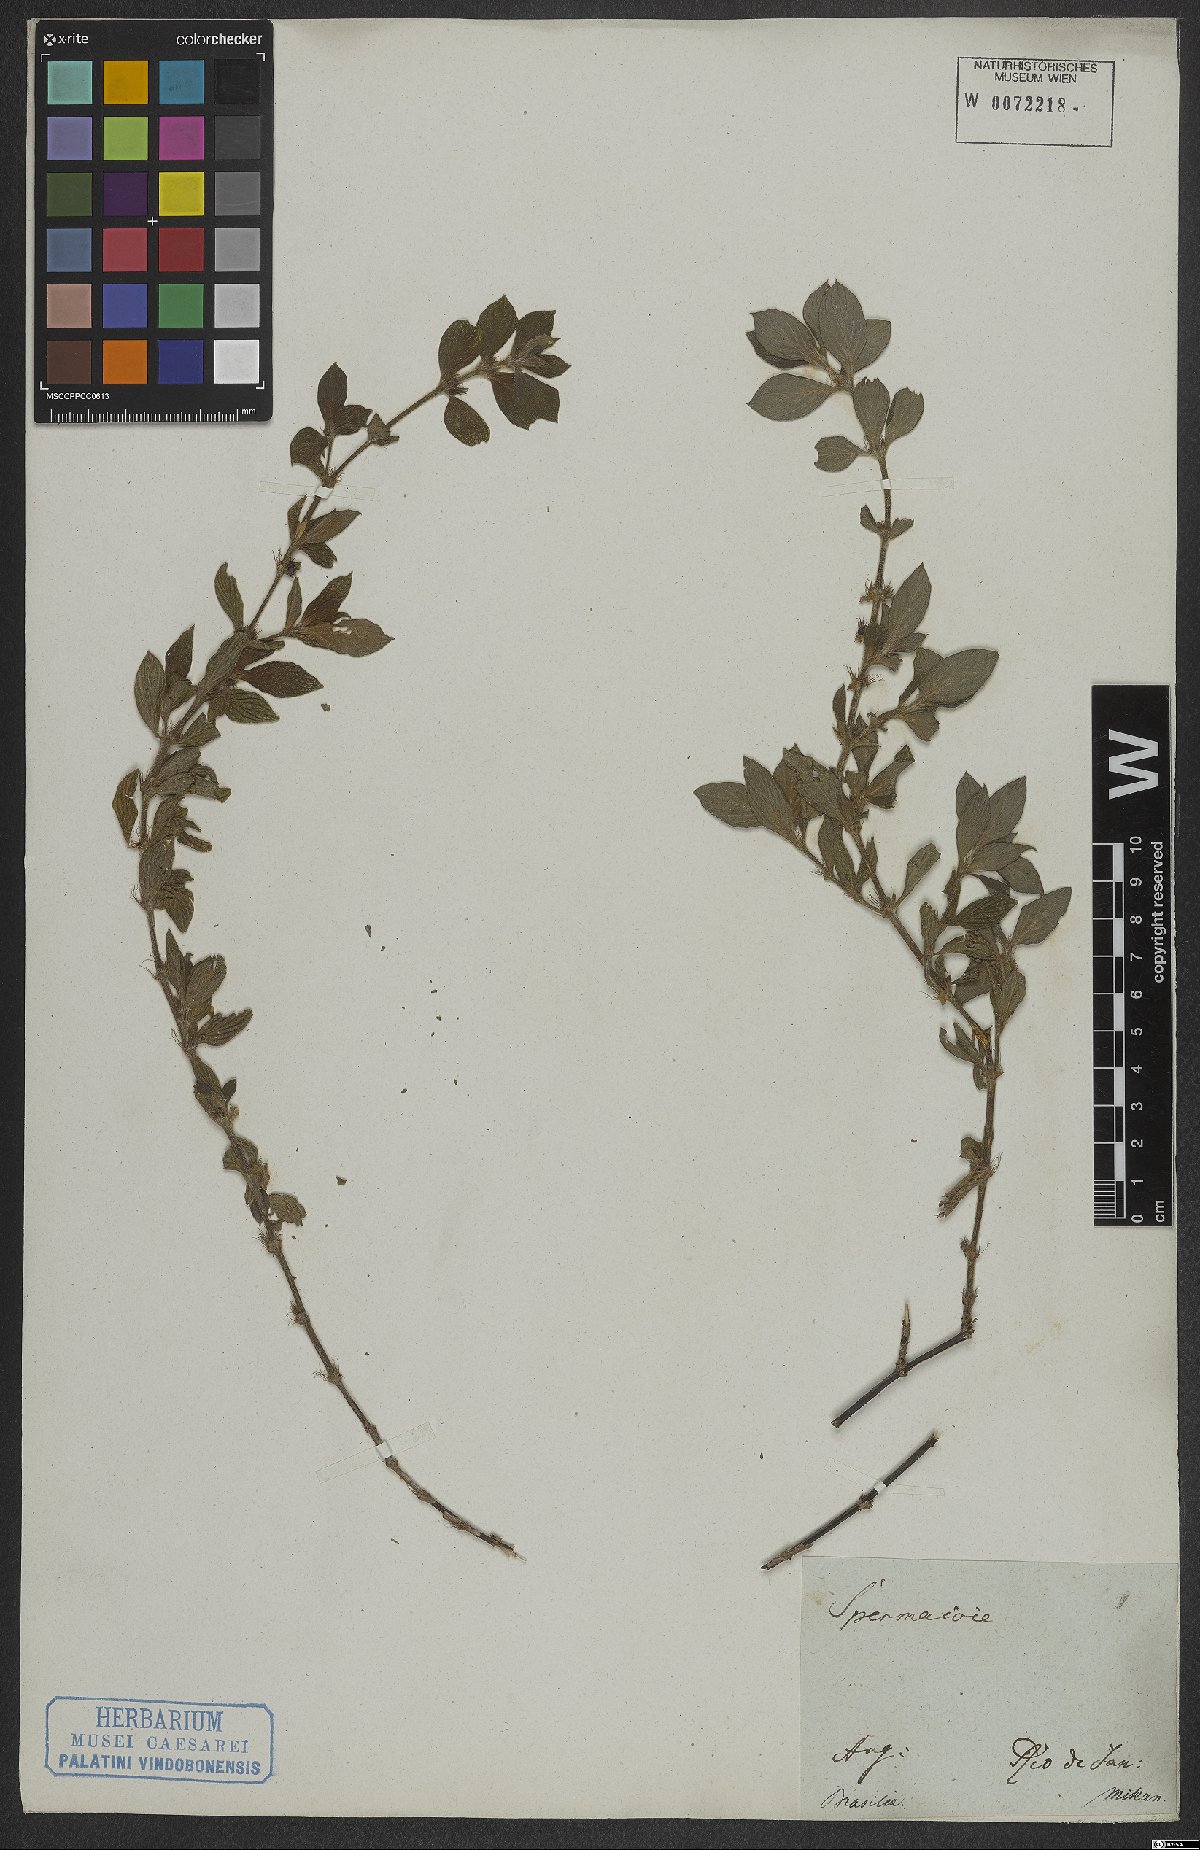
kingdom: Plantae
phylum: Tracheophyta
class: Magnoliopsida
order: Gentianales
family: Rubiaceae
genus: Hexasepalum
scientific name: Hexasepalum radulum
